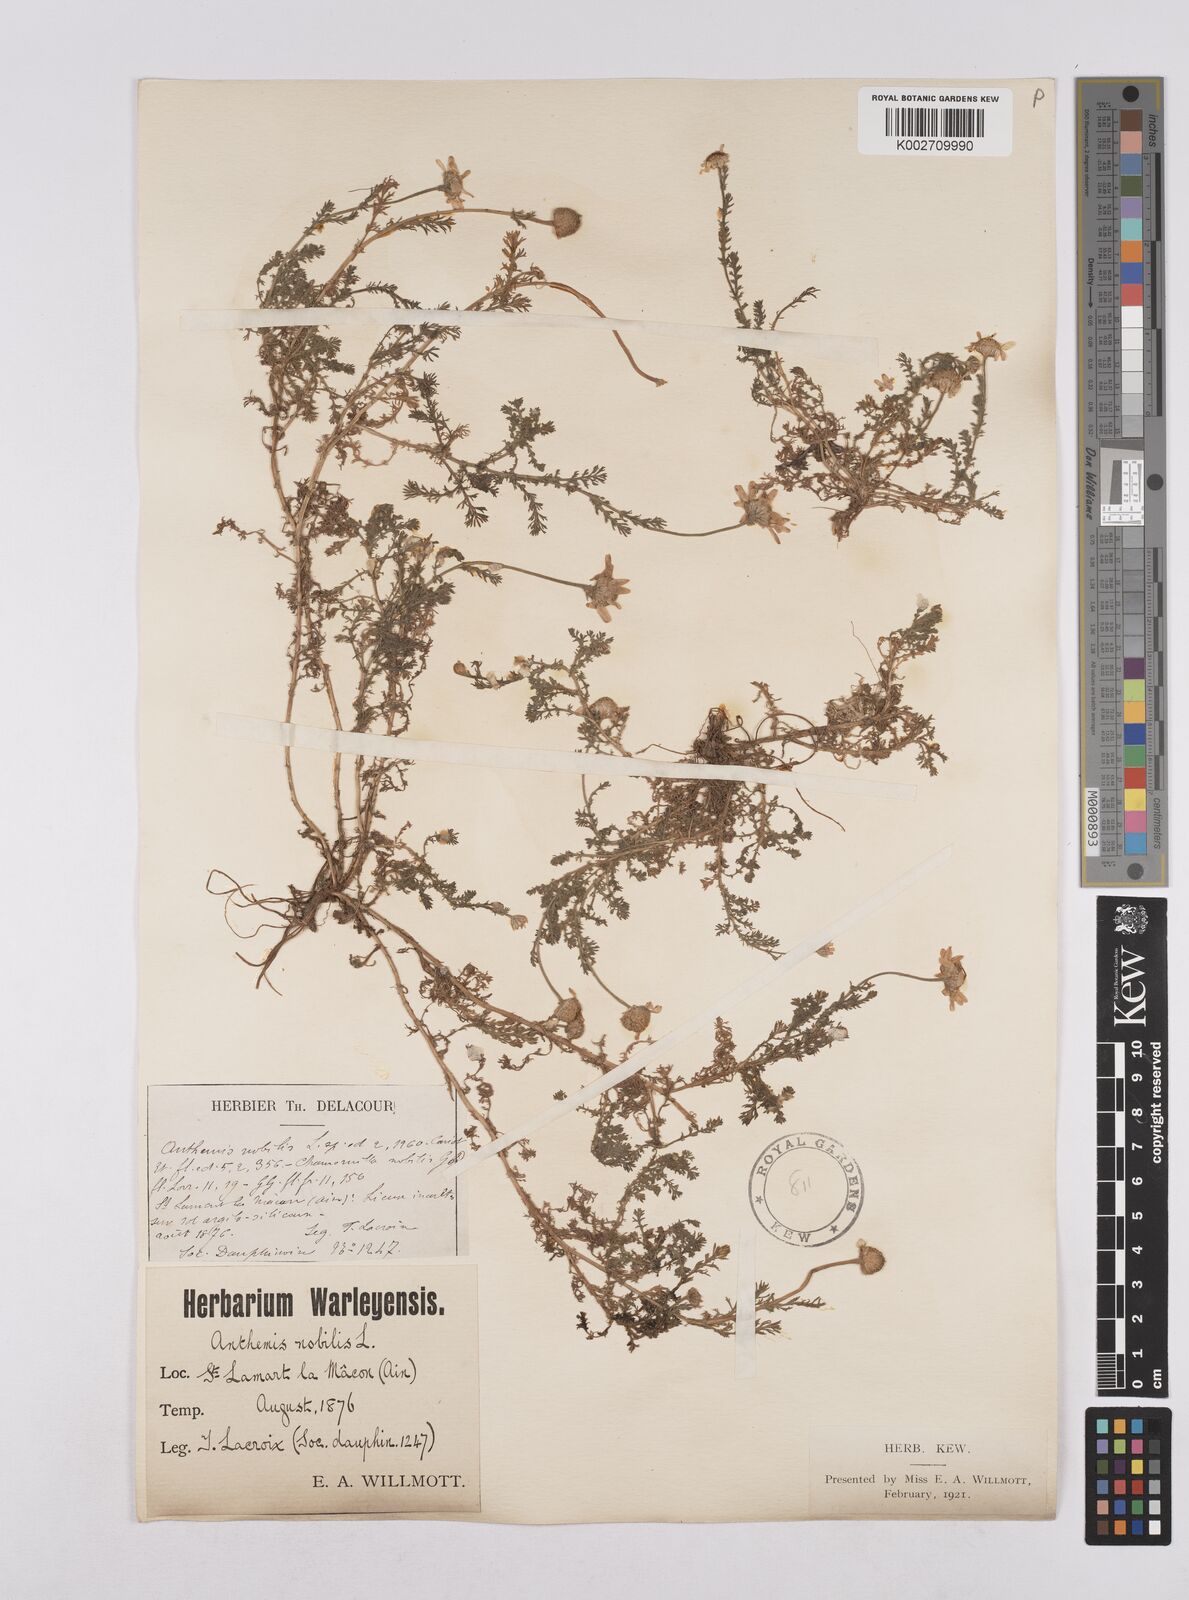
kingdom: Plantae
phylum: Tracheophyta
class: Magnoliopsida
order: Asterales
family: Asteraceae
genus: Chamaemelum
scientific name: Chamaemelum nobile
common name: Roman chamomile
